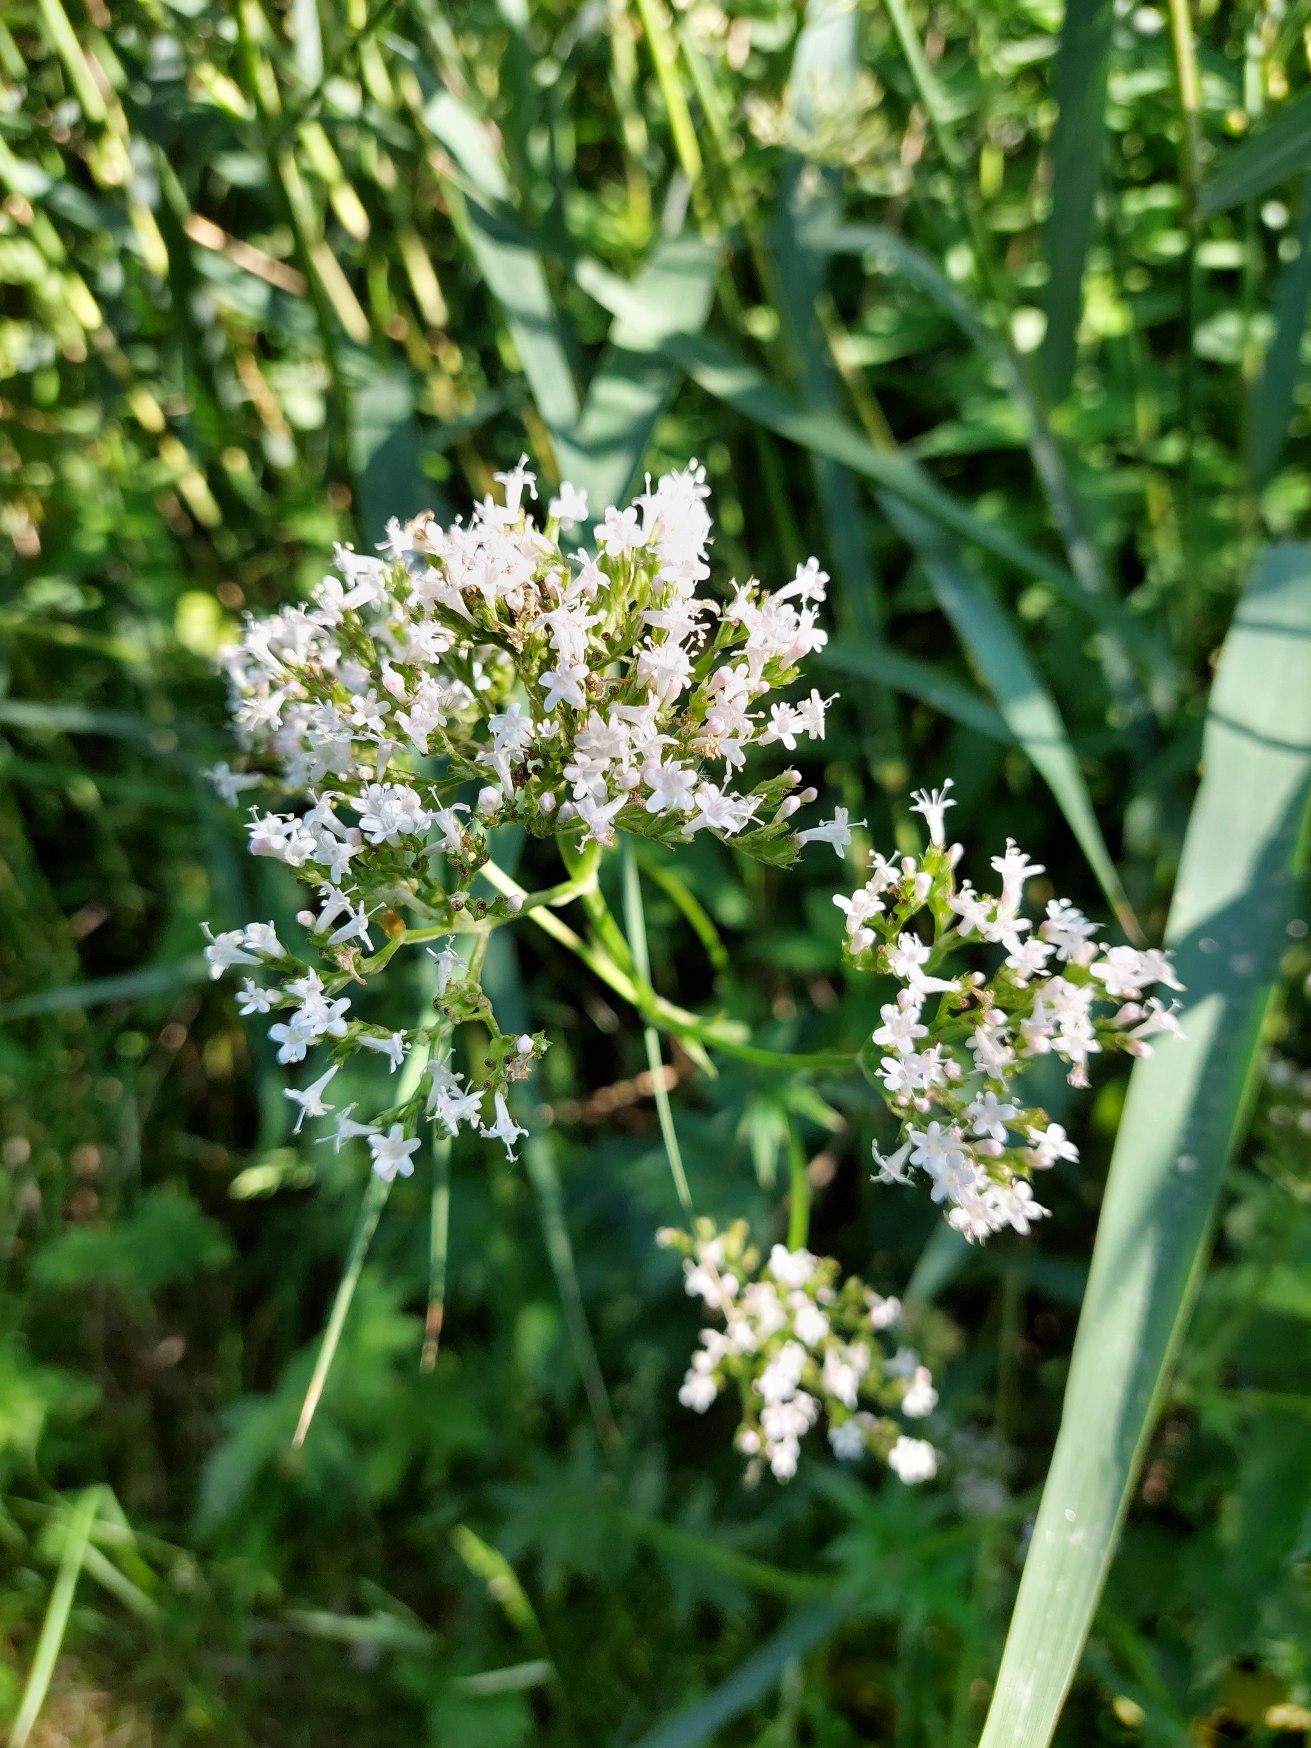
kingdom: Plantae
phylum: Tracheophyta
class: Magnoliopsida
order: Dipsacales
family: Caprifoliaceae
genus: Valeriana
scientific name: Valeriana sambucifolia
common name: Hyldebladet baldrian
